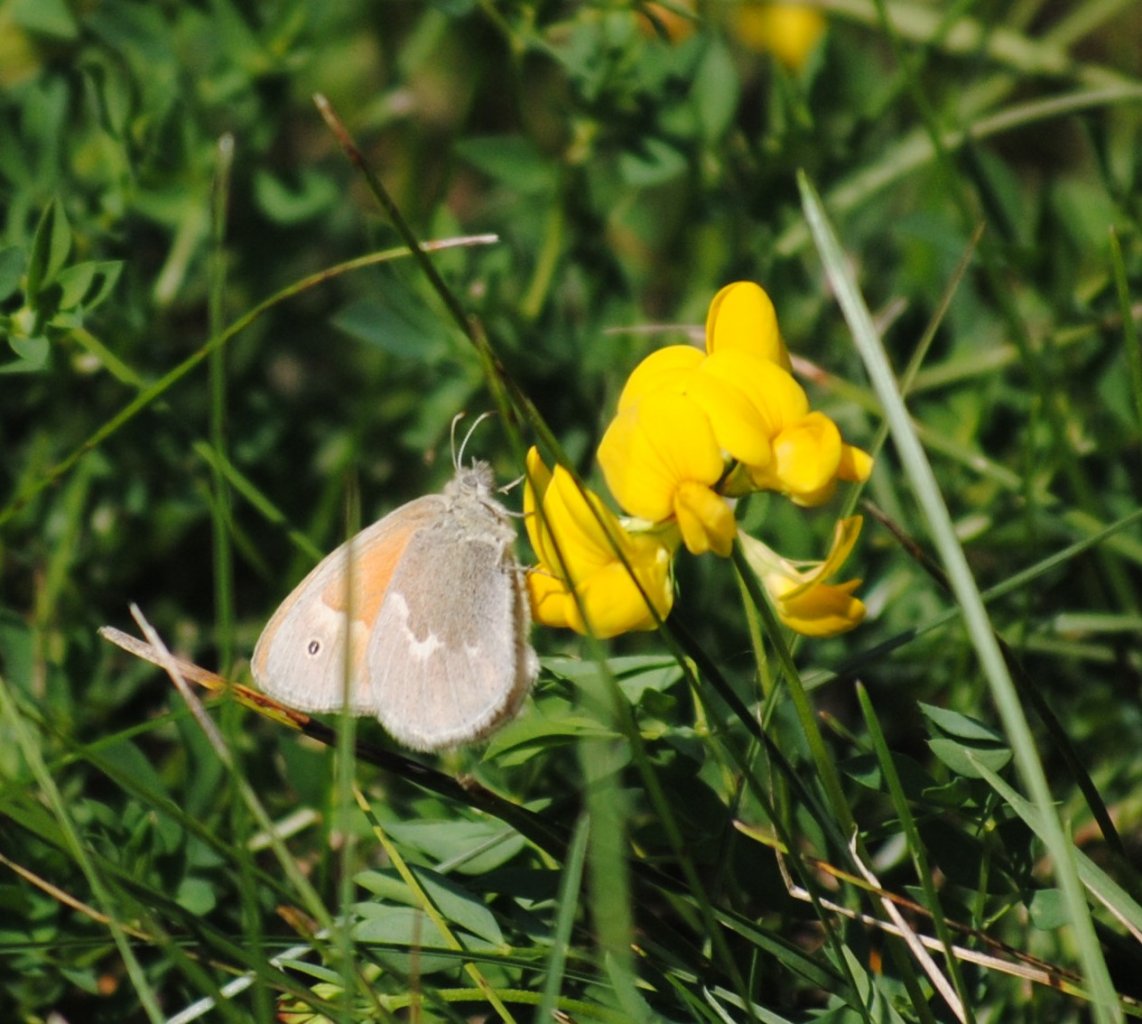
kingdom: Animalia
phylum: Arthropoda
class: Insecta
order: Lepidoptera
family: Nymphalidae
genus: Coenonympha
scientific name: Coenonympha tullia
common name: Large Heath
